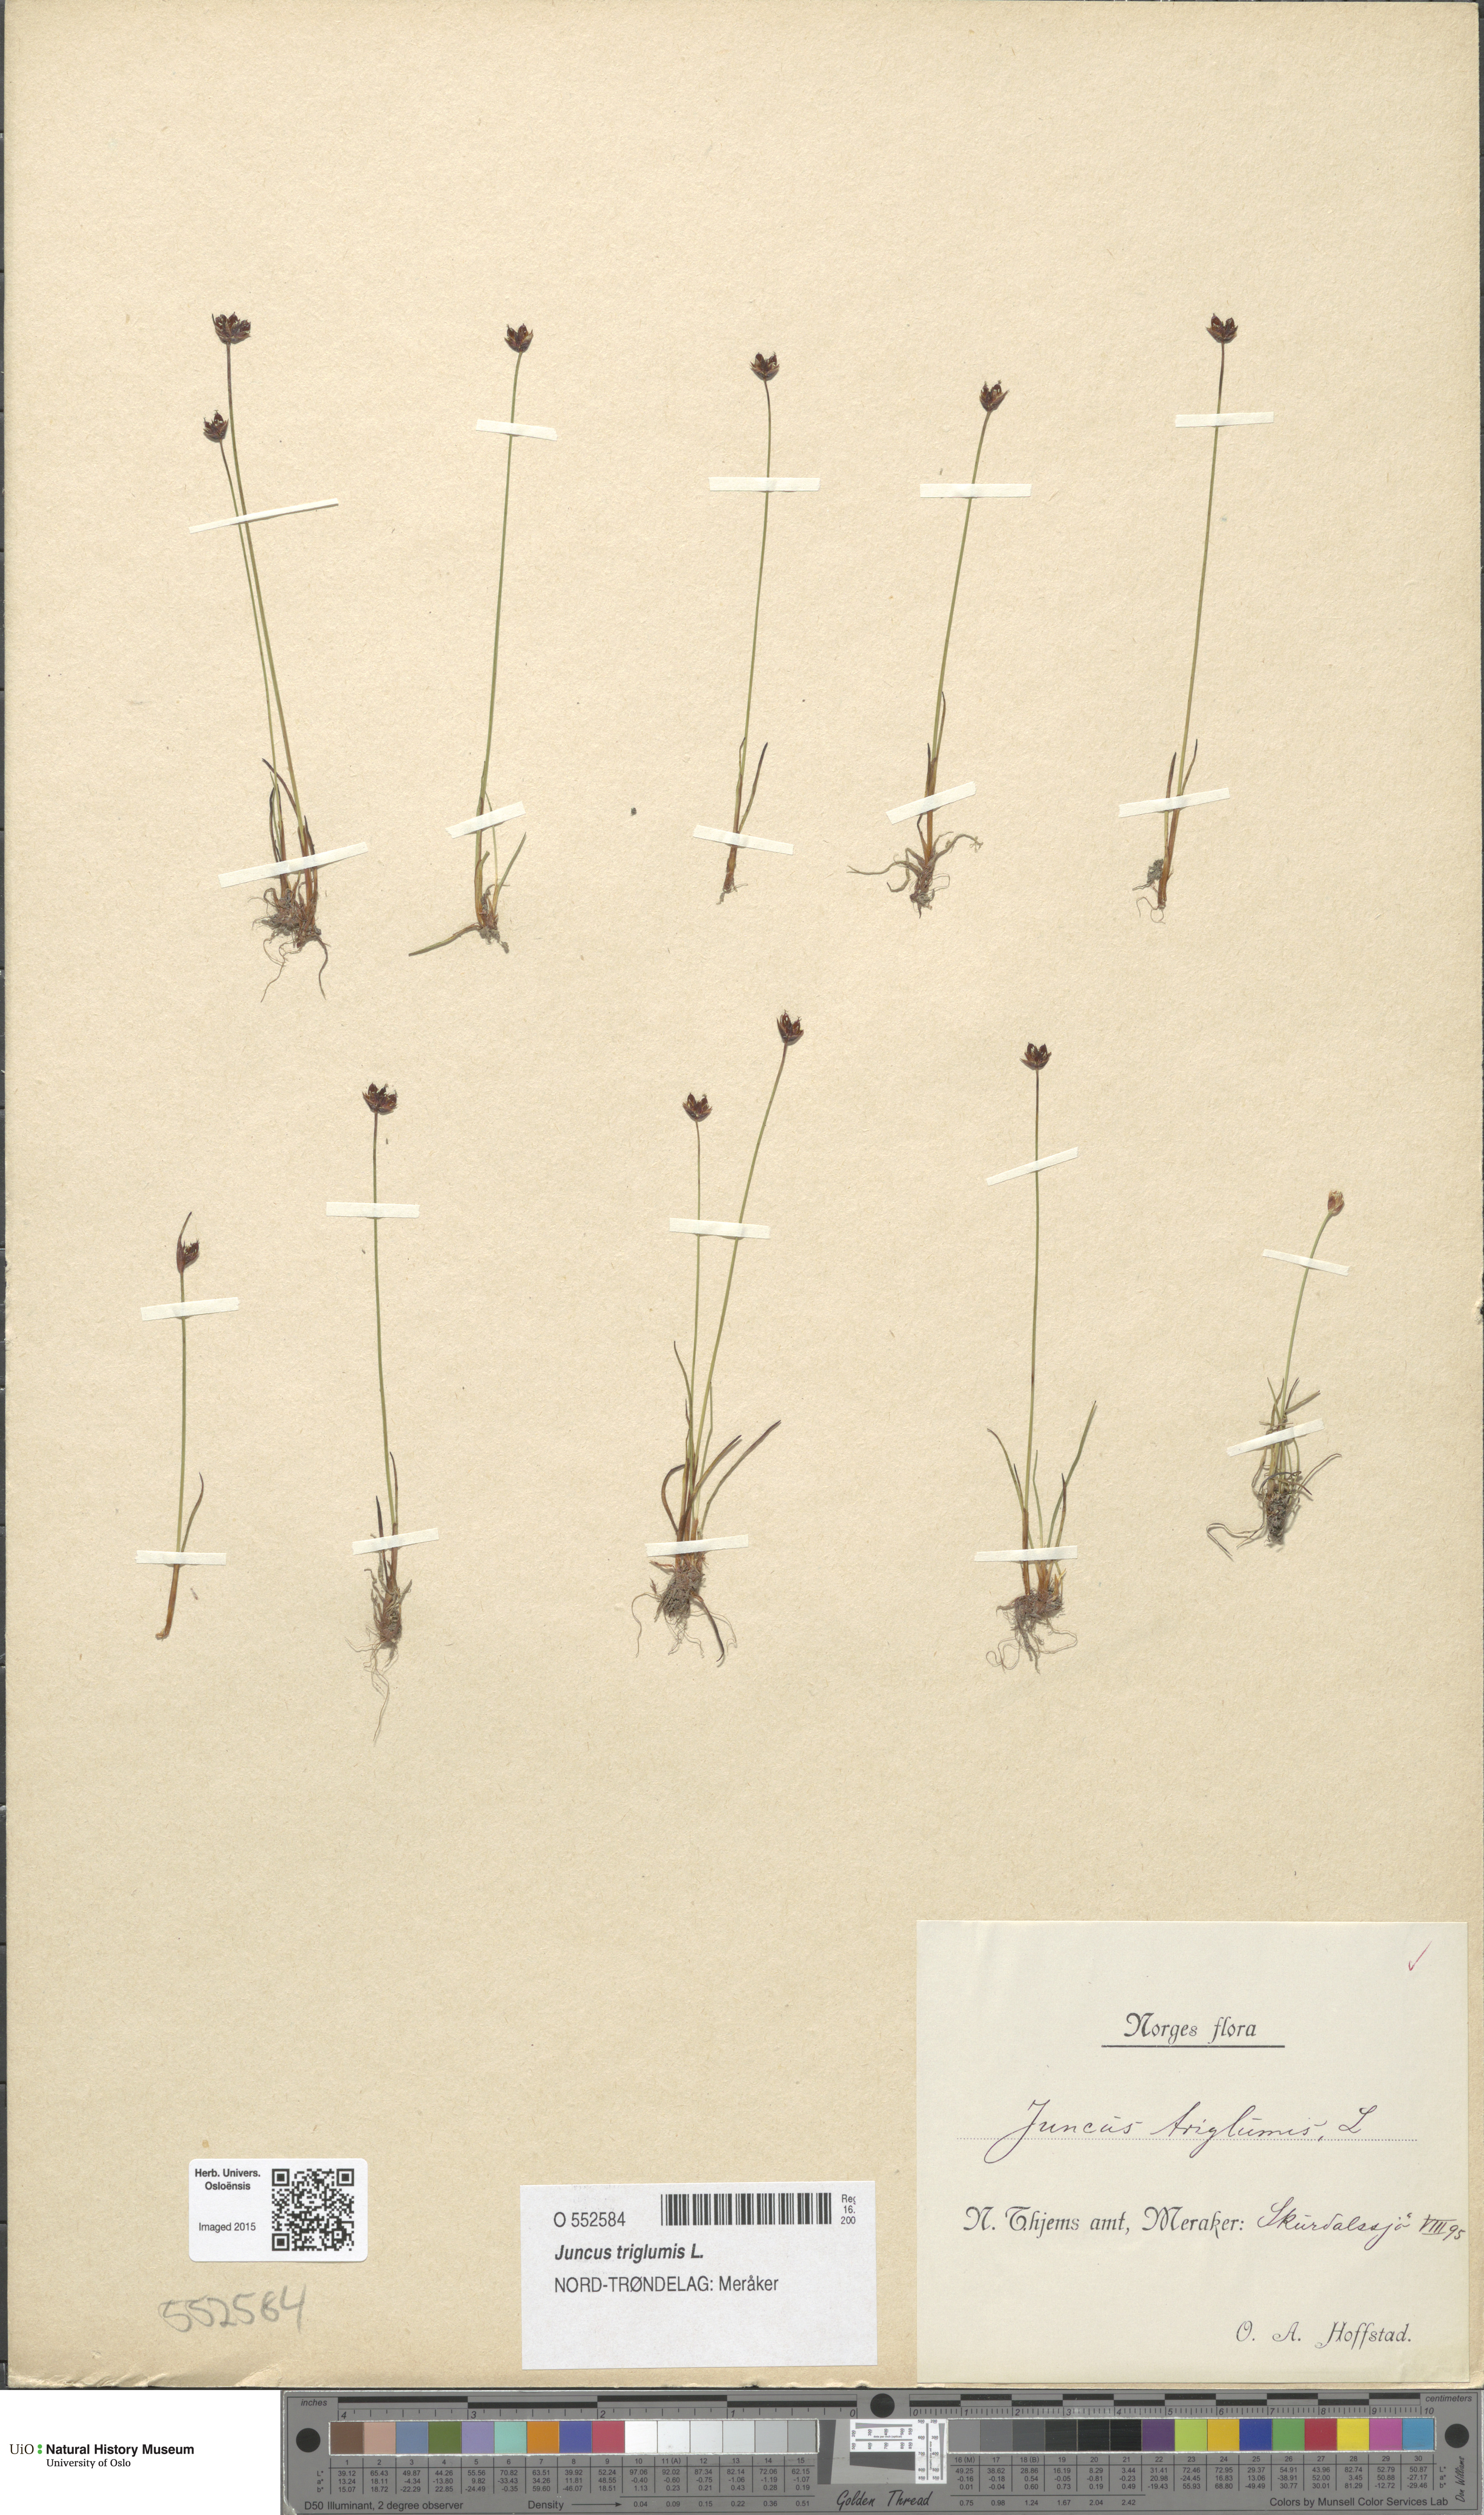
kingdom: Plantae
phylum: Tracheophyta
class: Liliopsida
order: Poales
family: Juncaceae
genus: Juncus
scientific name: Juncus triglumis
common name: Three-flowered rush
